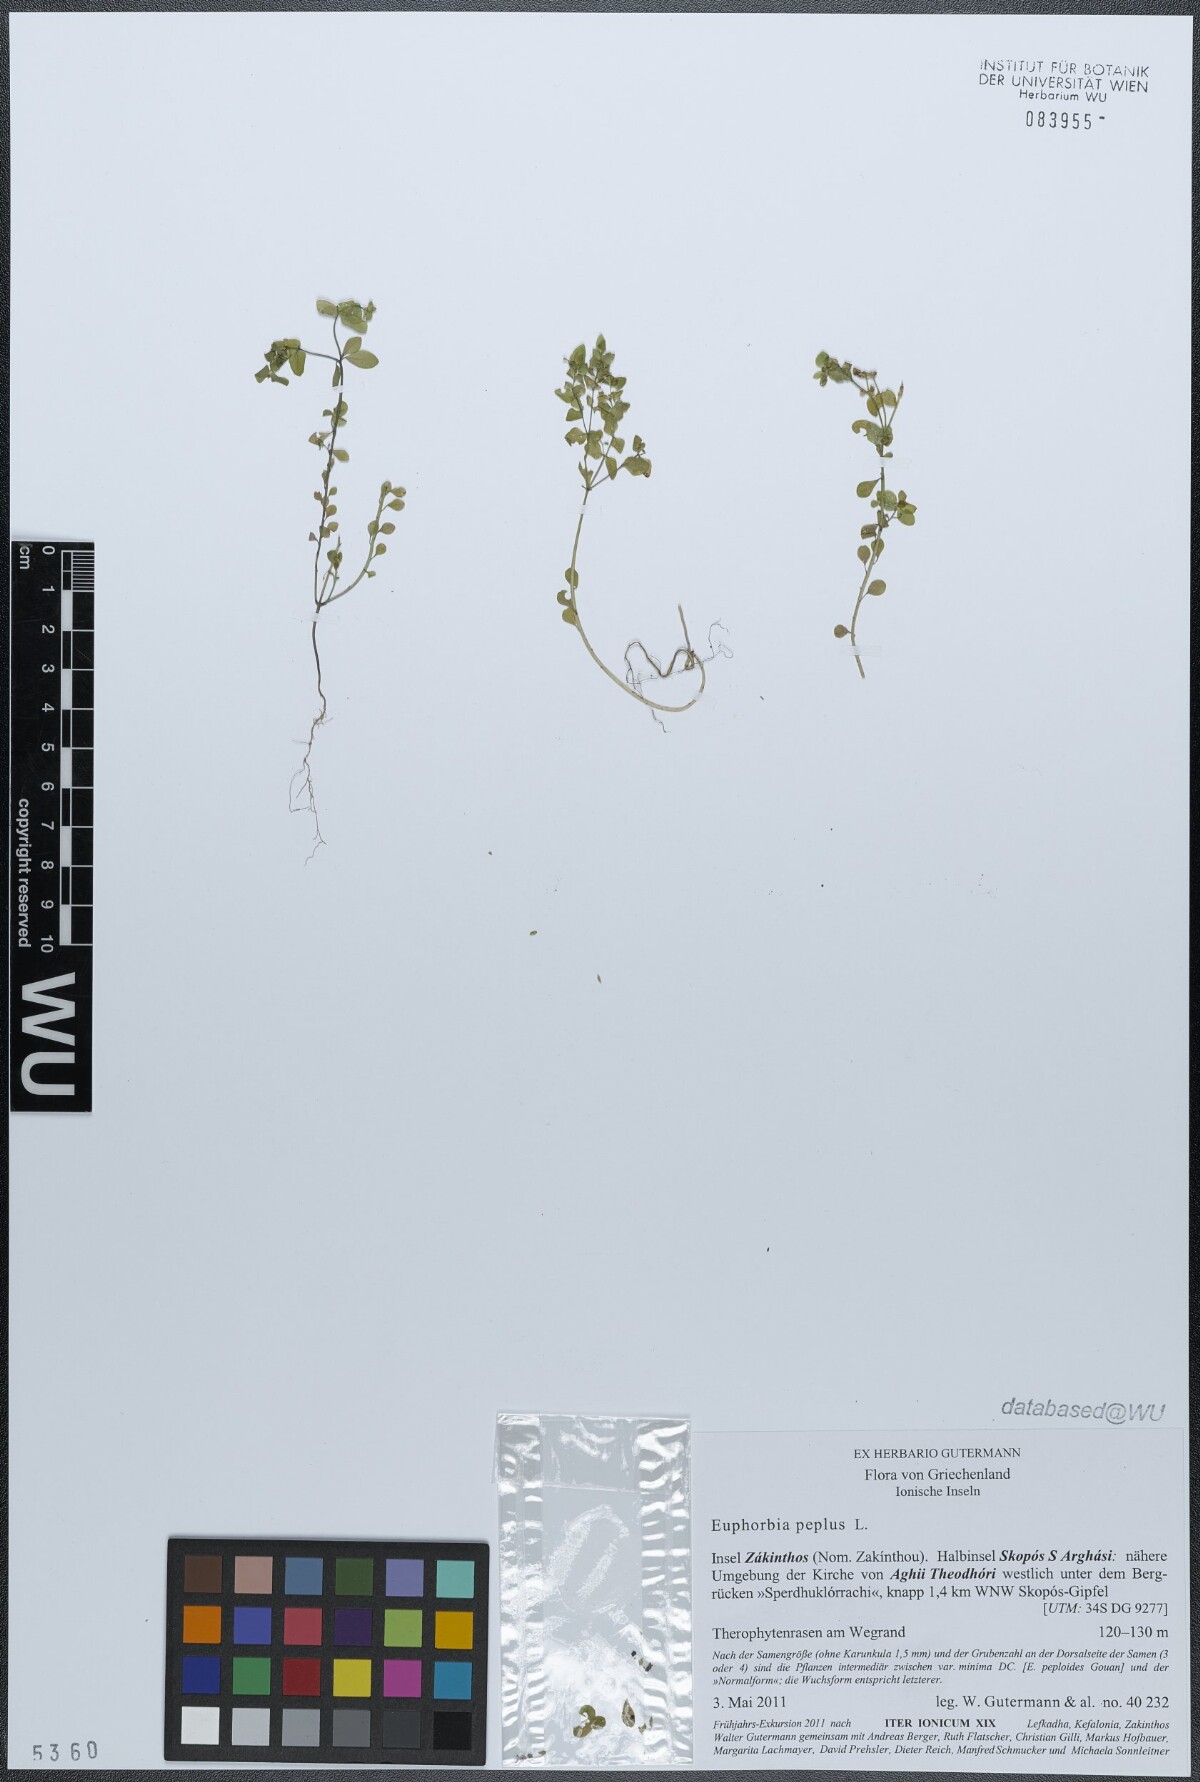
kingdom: Plantae
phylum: Tracheophyta
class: Magnoliopsida
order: Malpighiales
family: Euphorbiaceae
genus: Euphorbia
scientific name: Euphorbia peplus
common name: Petty spurge
